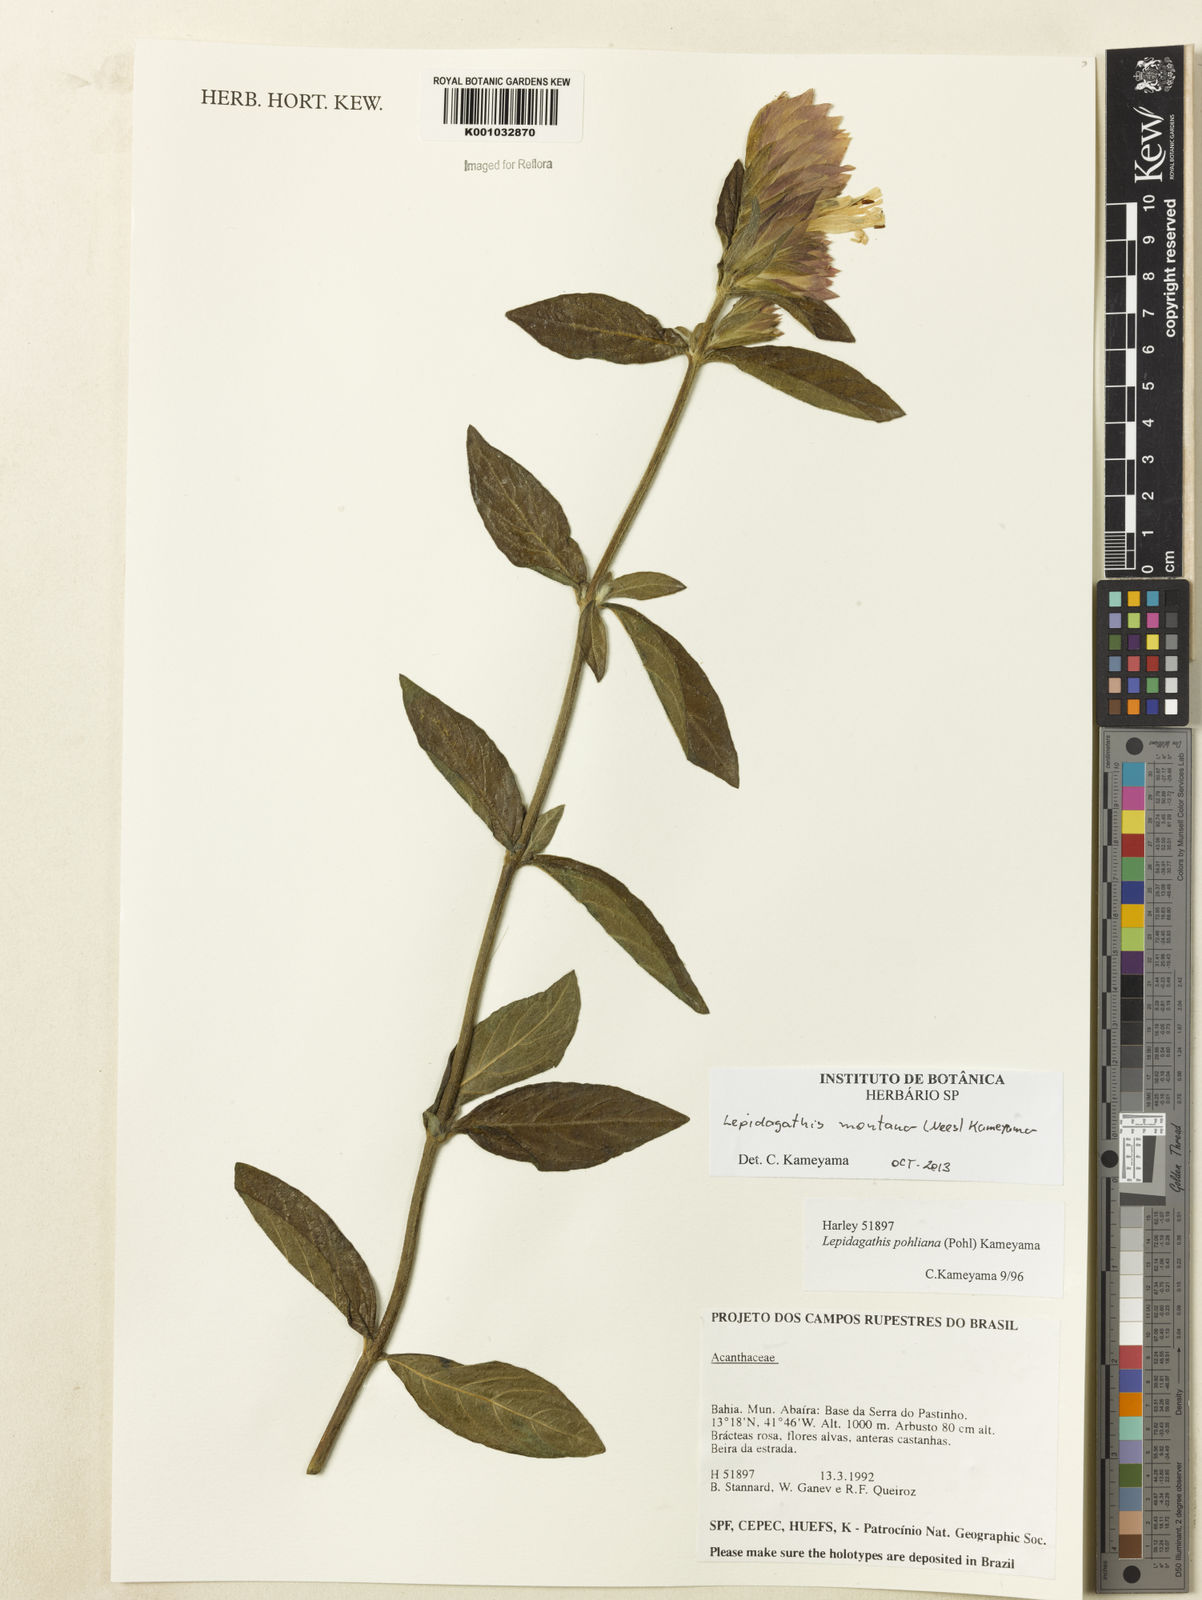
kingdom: Plantae
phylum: Tracheophyta
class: Magnoliopsida
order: Lamiales
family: Acanthaceae
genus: Lepidagathis
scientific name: Lepidagathis montana
